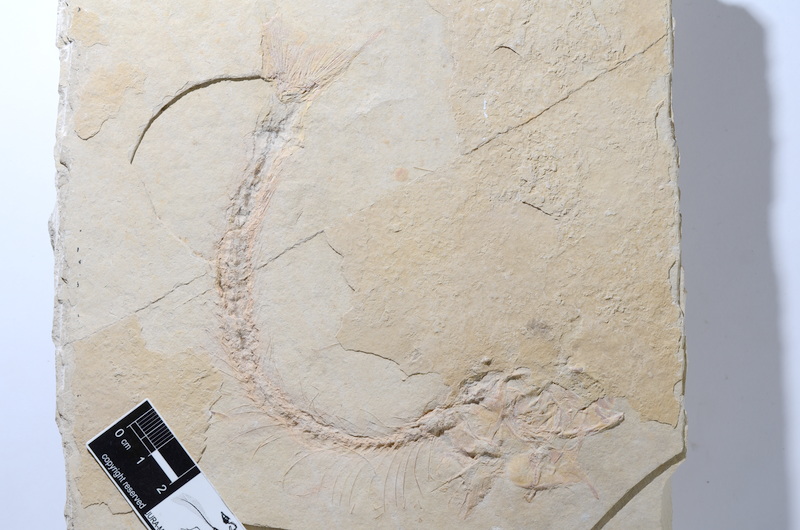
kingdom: Animalia
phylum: Chordata
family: Ascalaboidae
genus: Tharsis
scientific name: Tharsis dubius
